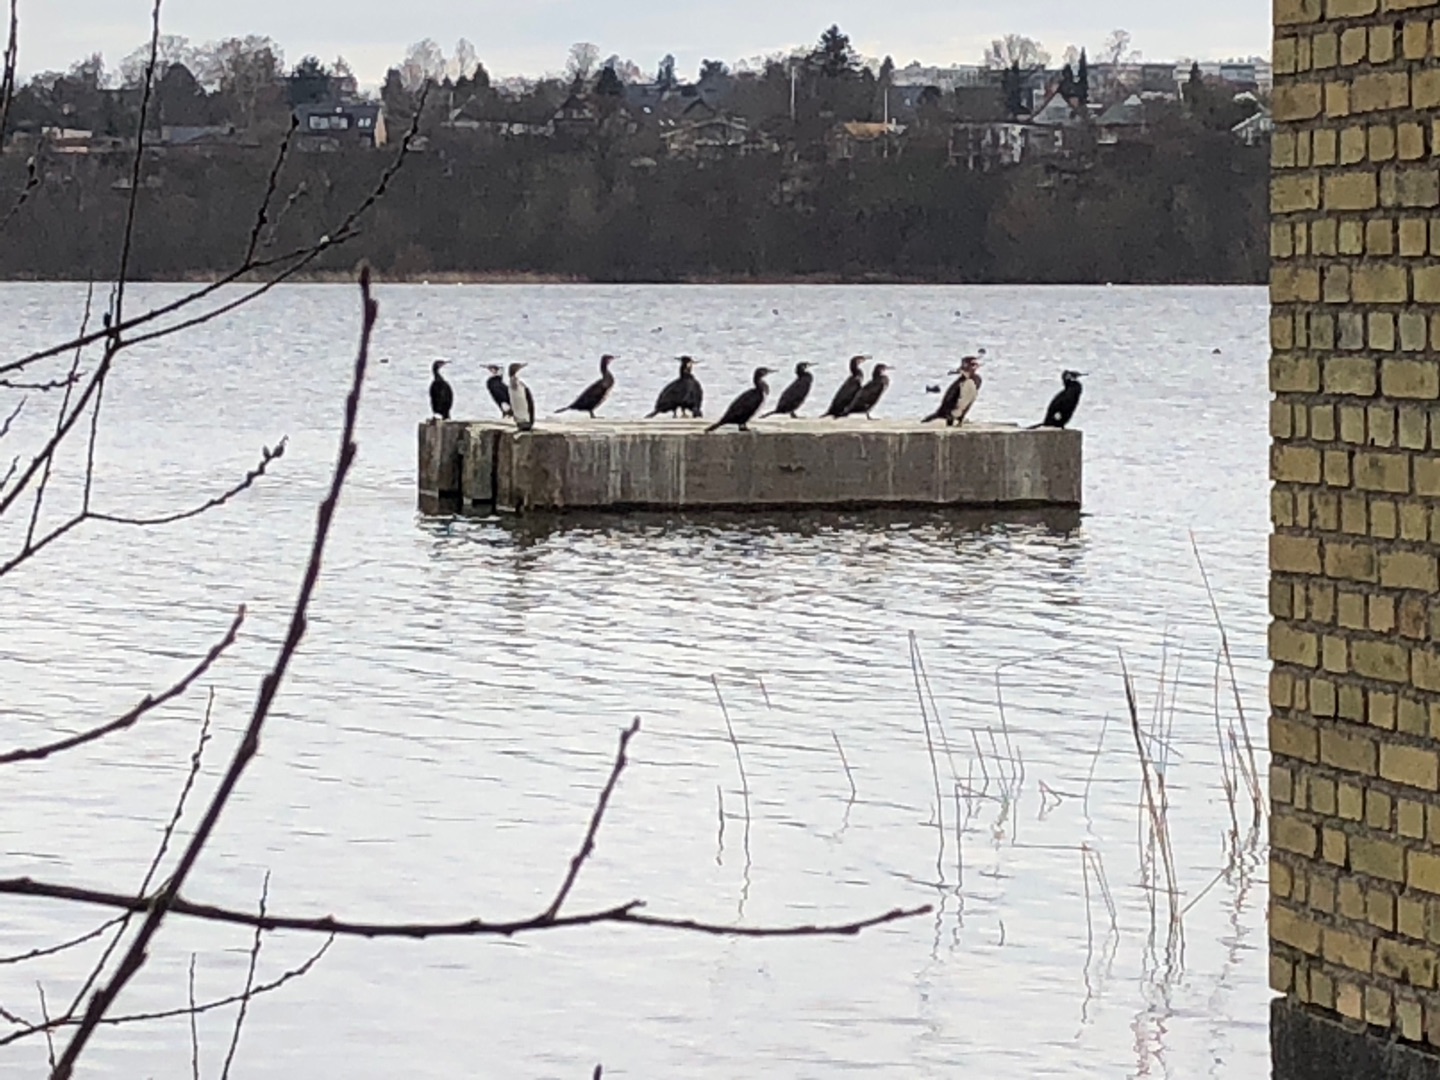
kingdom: Animalia
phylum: Chordata
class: Aves
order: Suliformes
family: Phalacrocoracidae
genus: Phalacrocorax
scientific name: Phalacrocorax carbo
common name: Skarv
